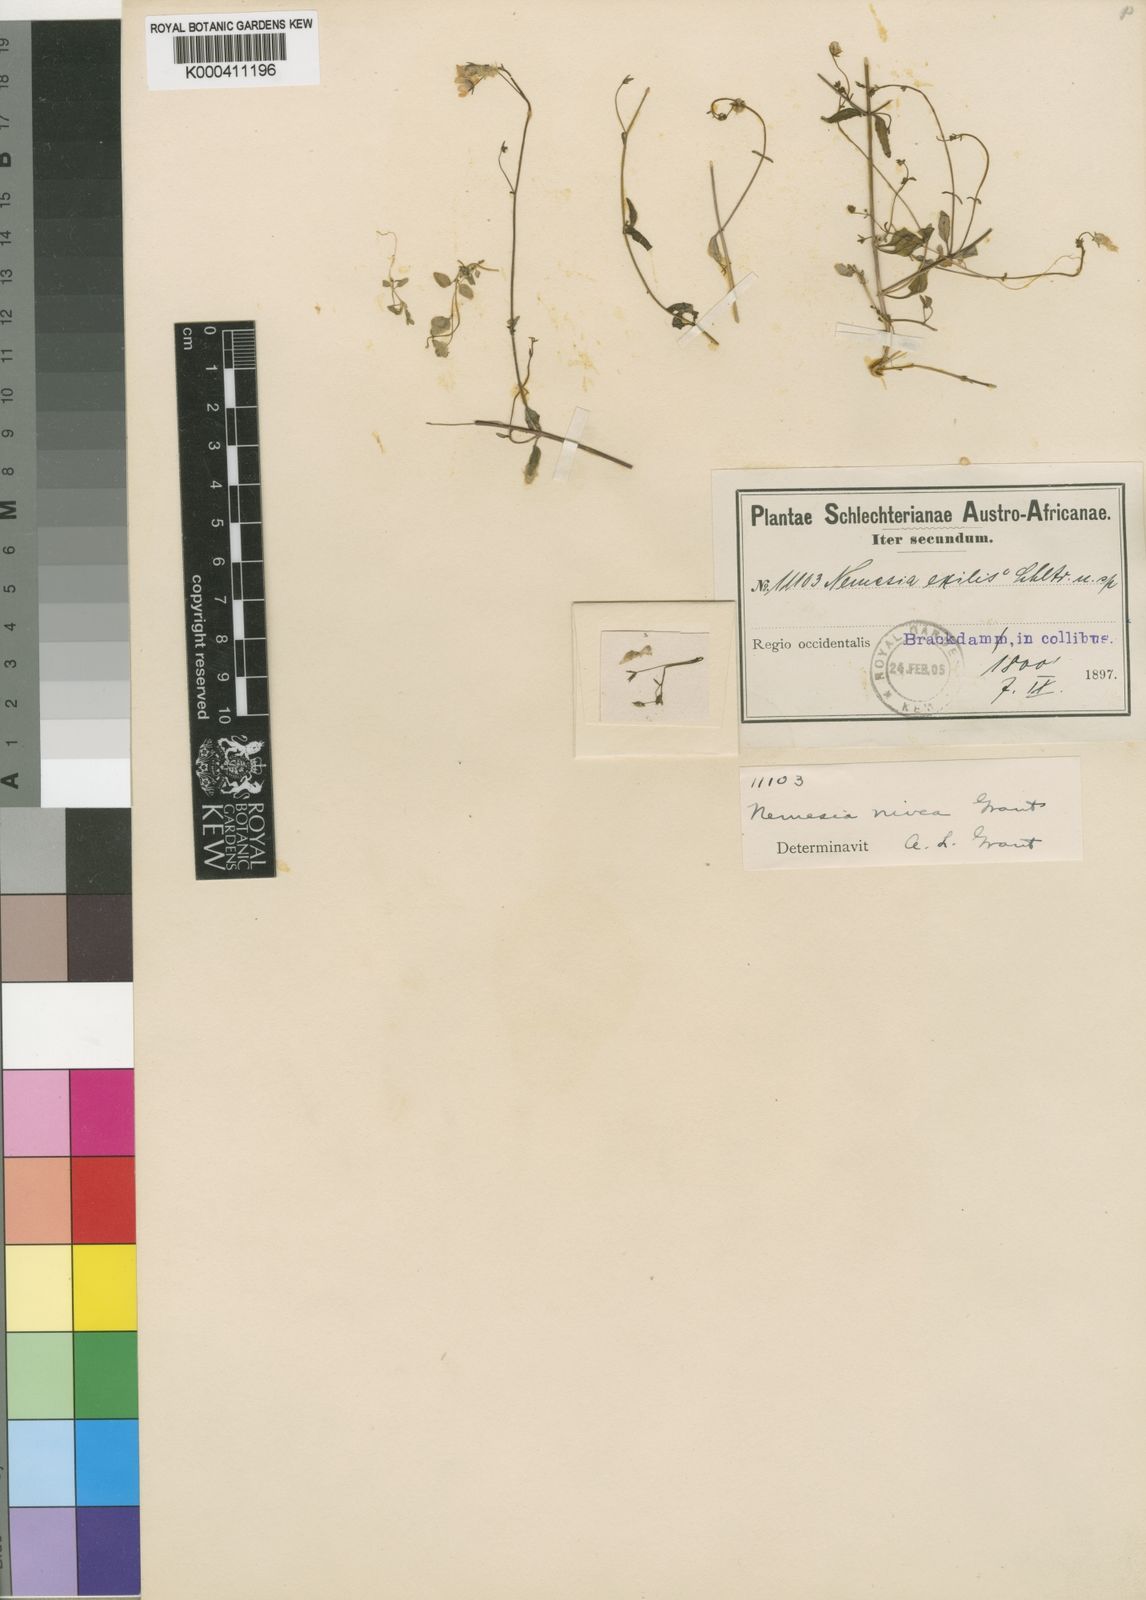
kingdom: Plantae
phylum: Tracheophyta
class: Magnoliopsida
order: Lamiales
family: Scrophulariaceae
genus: Nemesia
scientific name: Nemesia
